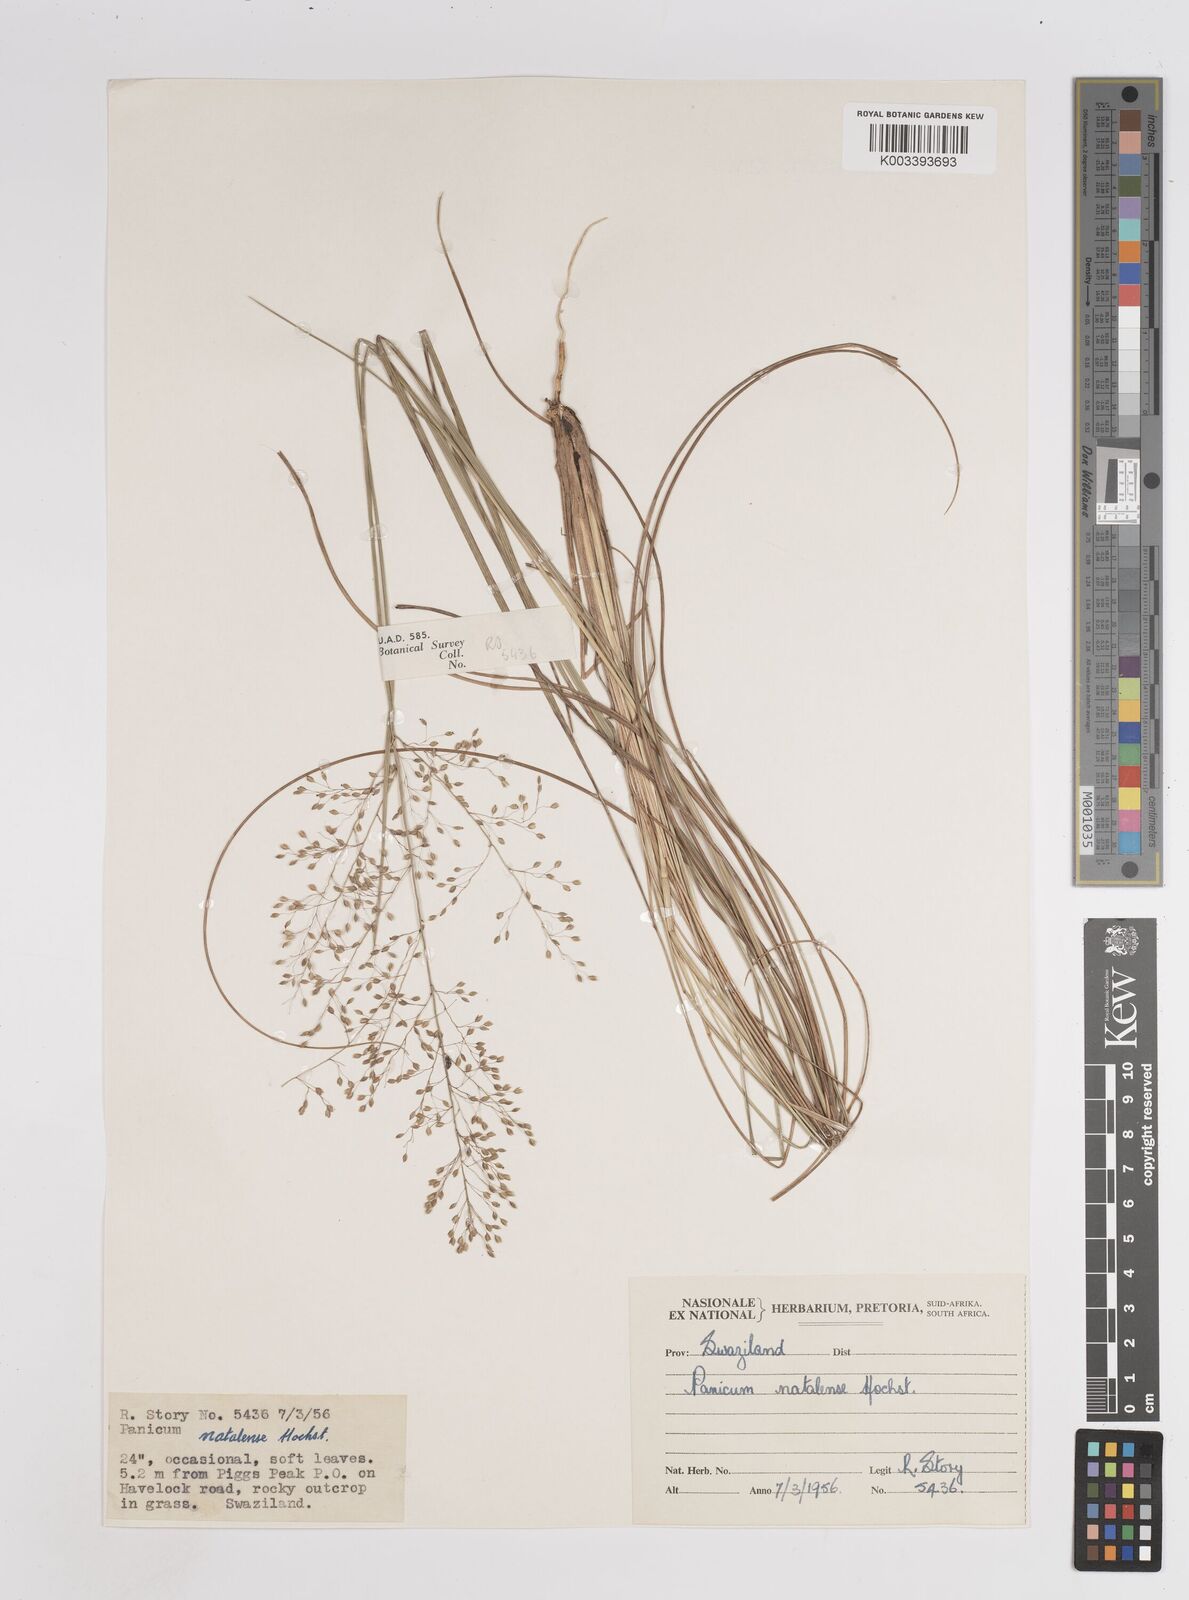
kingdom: Plantae
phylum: Tracheophyta
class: Liliopsida
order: Poales
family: Poaceae
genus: Trichanthecium
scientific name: Trichanthecium natalense
